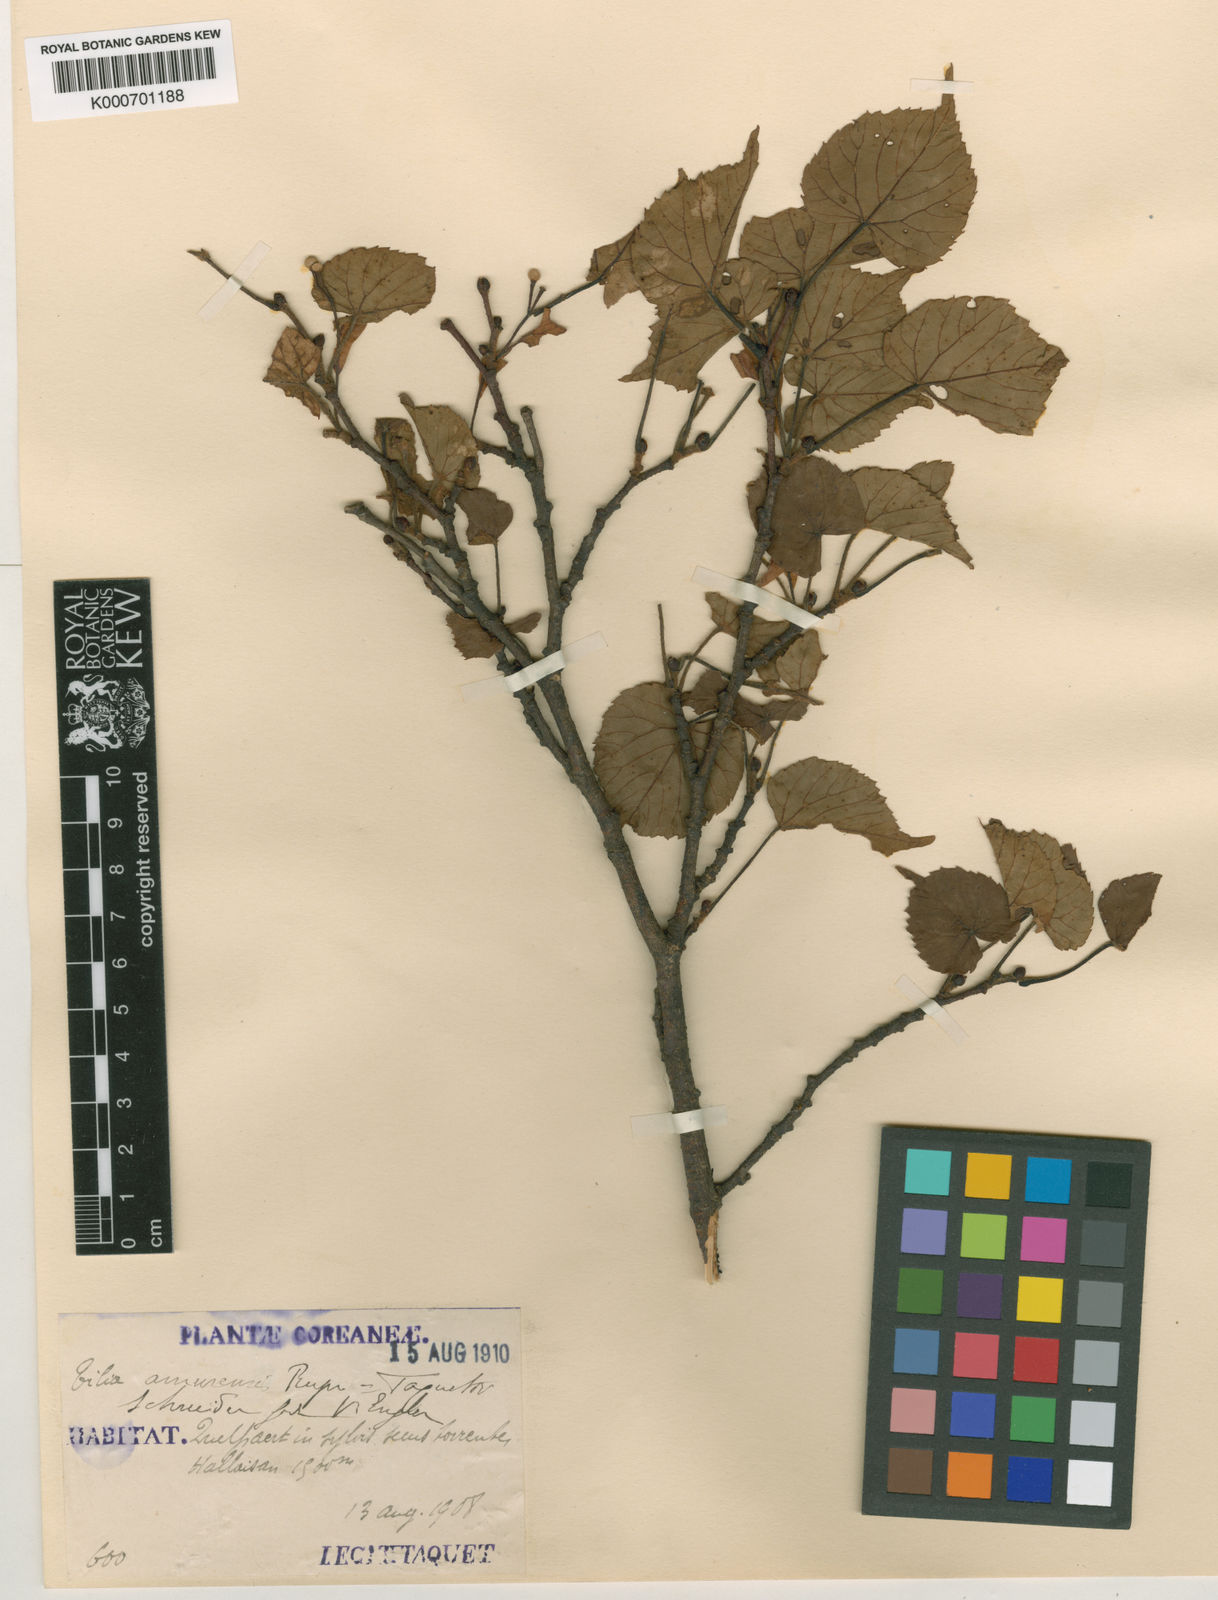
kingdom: Plantae
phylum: Tracheophyta
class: Magnoliopsida
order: Malvales
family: Malvaceae
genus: Tilia
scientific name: Tilia amurensis
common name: Amur lime
